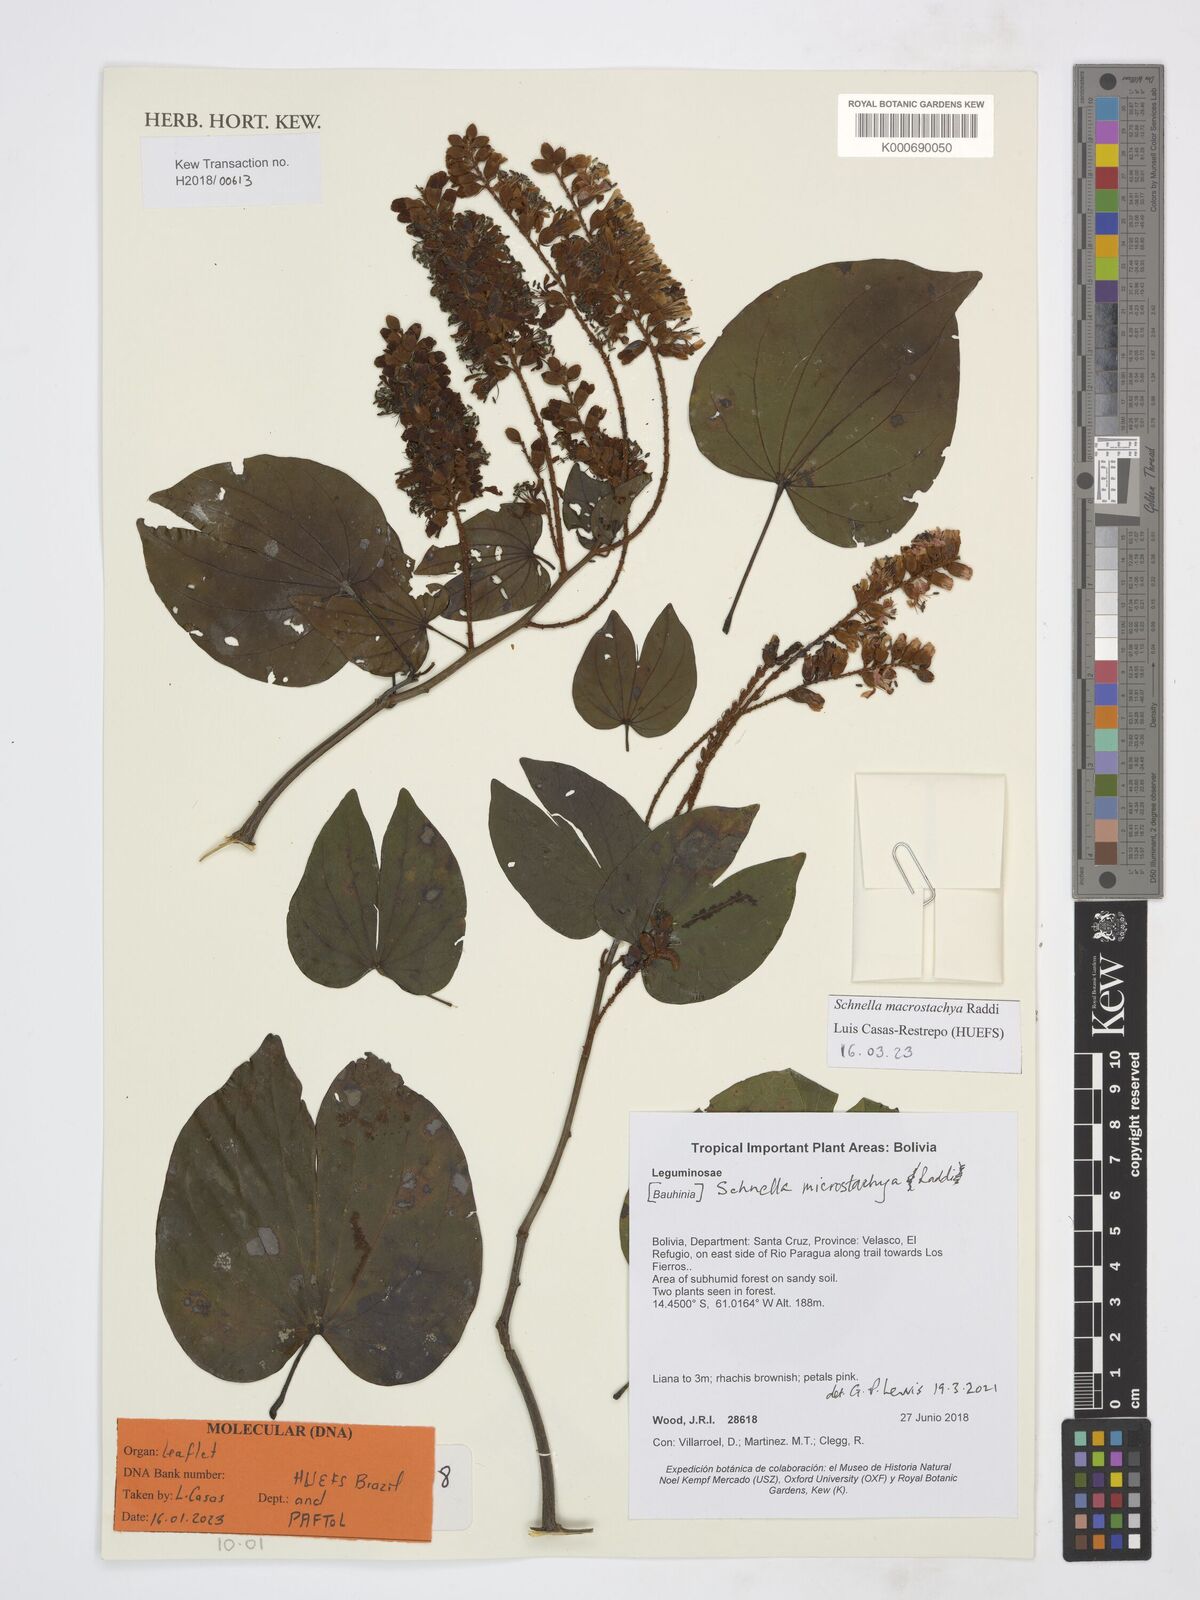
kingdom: Plantae
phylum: Tracheophyta
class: Magnoliopsida
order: Fabales
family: Fabaceae
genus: Schnella
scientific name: Schnella macrostachya
